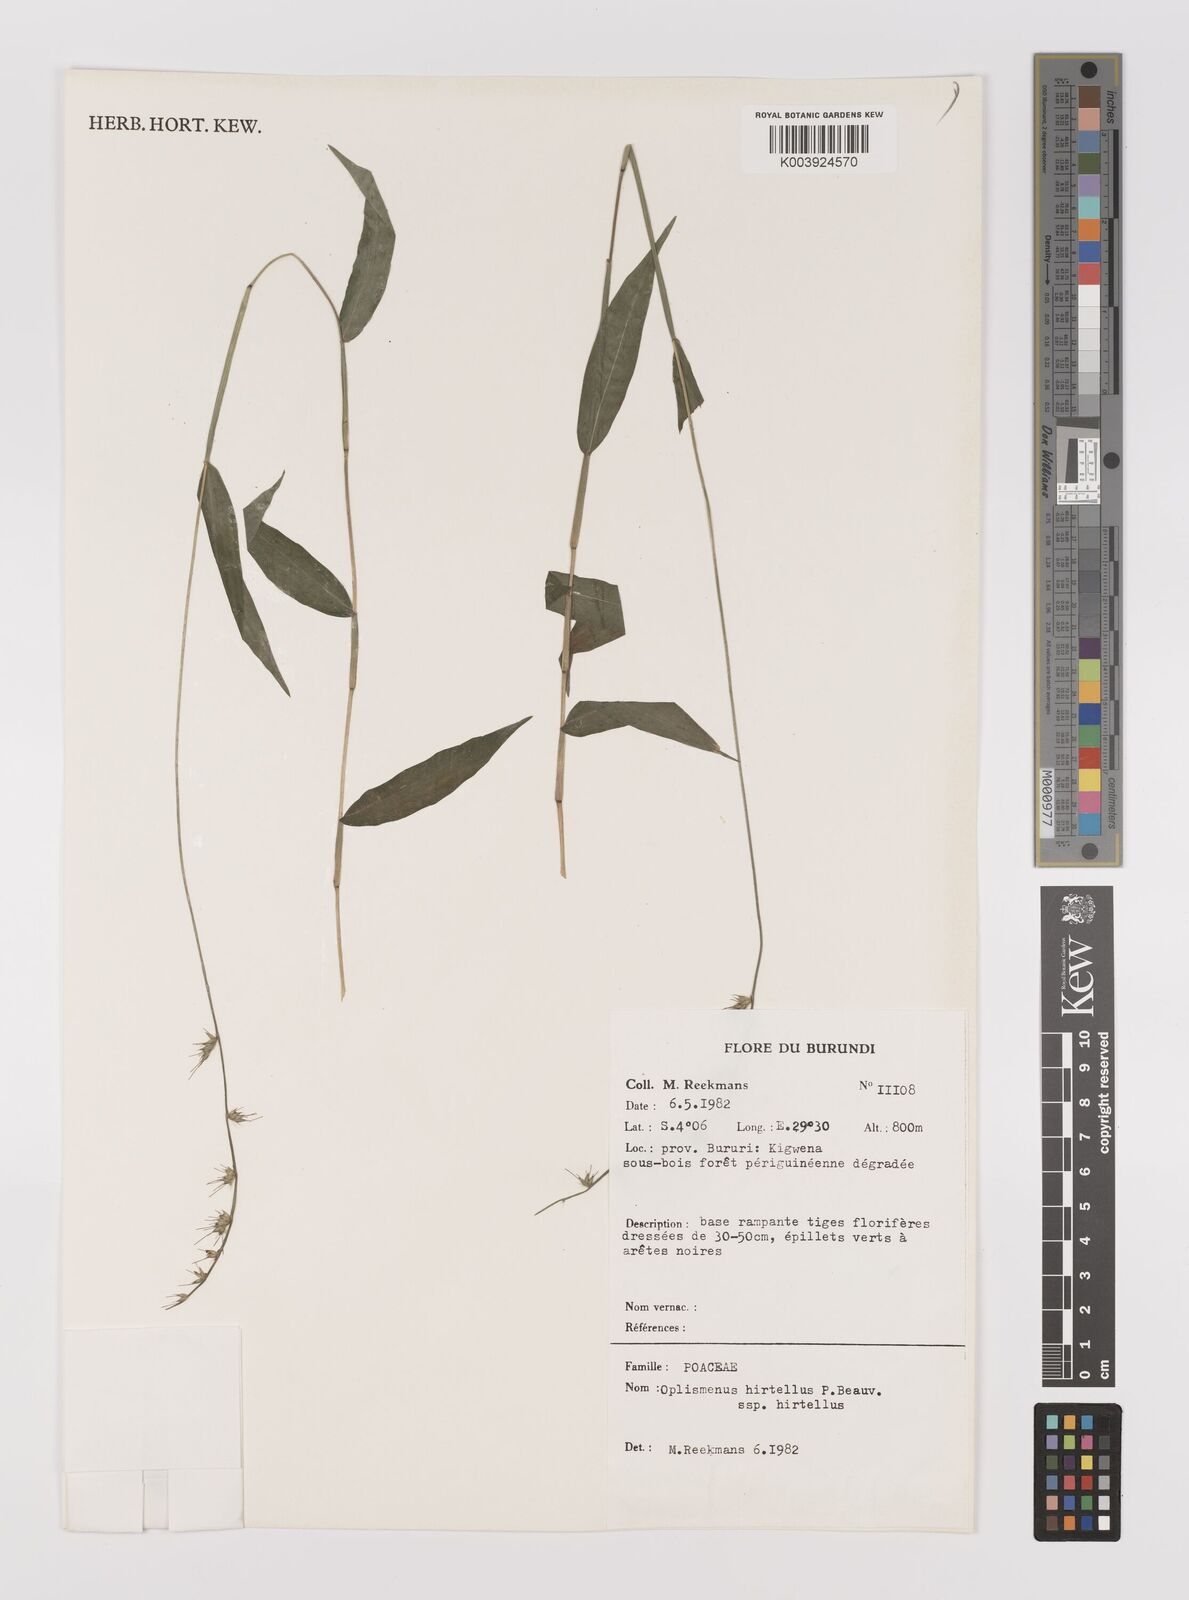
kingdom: Plantae
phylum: Tracheophyta
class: Liliopsida
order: Poales
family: Poaceae
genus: Oplismenus
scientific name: Oplismenus hirtellus
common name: Basketgrass
